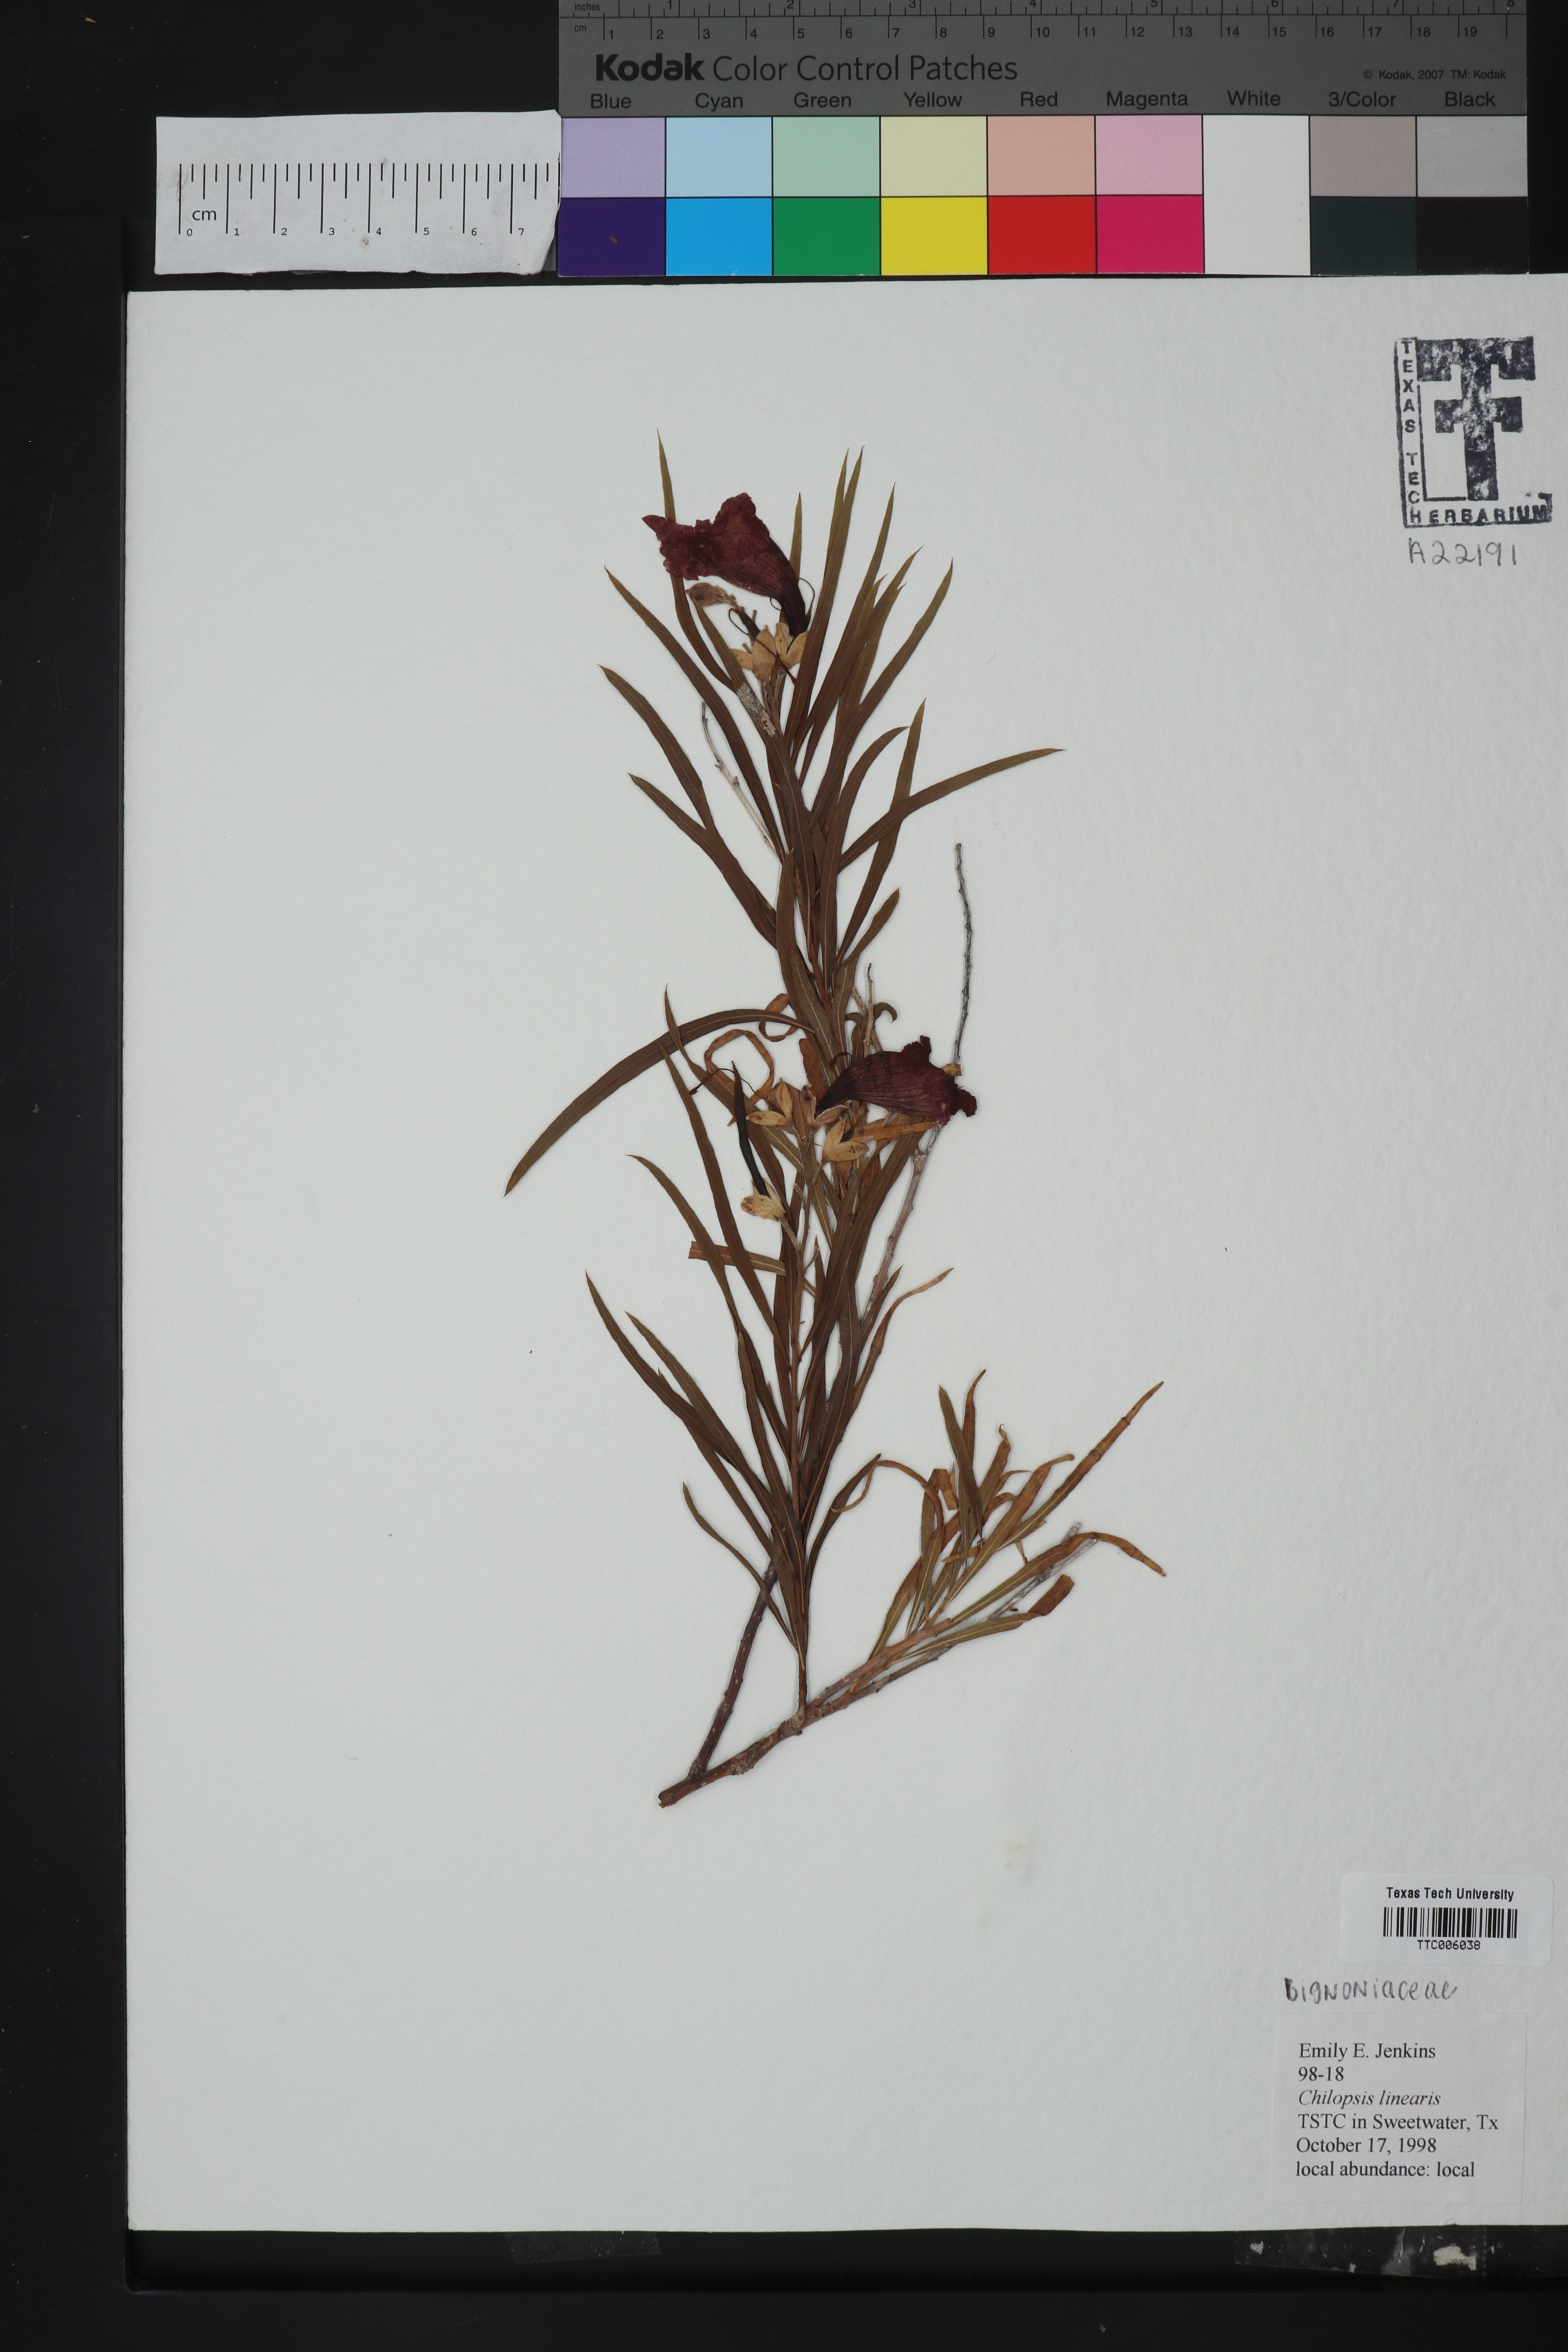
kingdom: Plantae
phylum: Tracheophyta
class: Magnoliopsida
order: Lamiales
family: Bignoniaceae
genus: Chilopsis
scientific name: Chilopsis linearis
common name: Desert-willow
